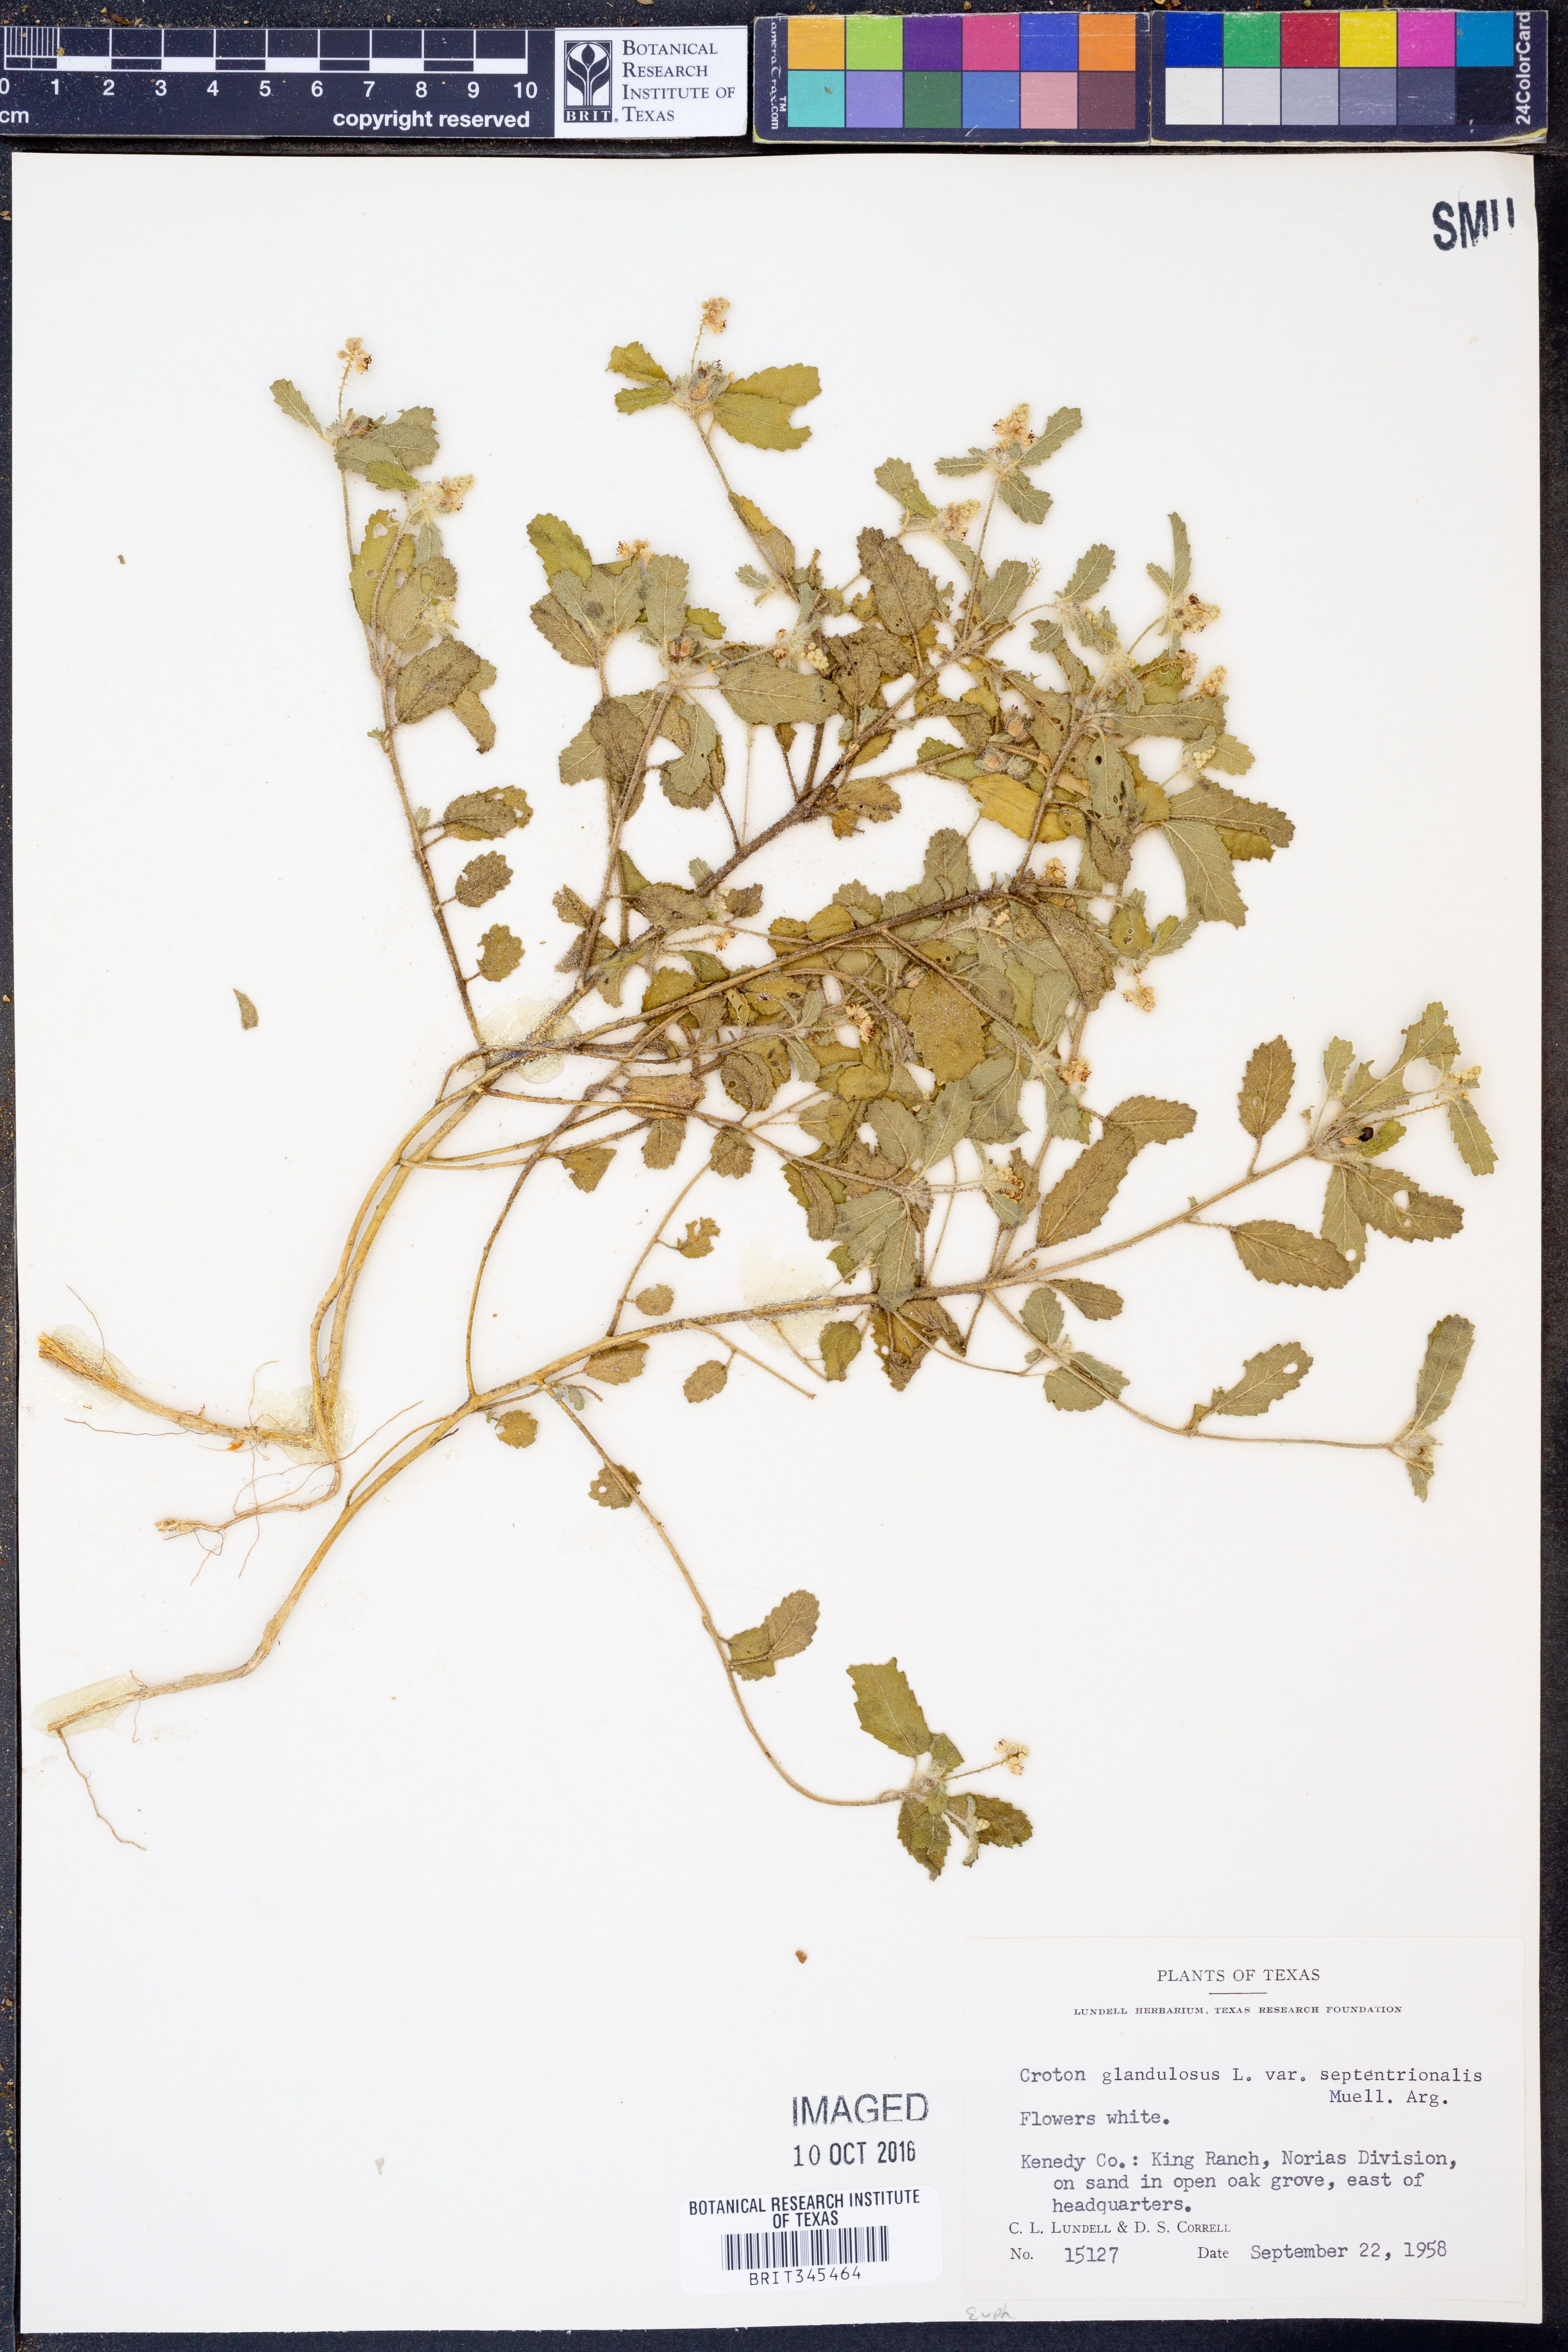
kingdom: Plantae
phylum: Tracheophyta
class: Magnoliopsida
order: Malpighiales
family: Euphorbiaceae
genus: Croton
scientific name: Croton glandulosus
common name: Tropic croton
